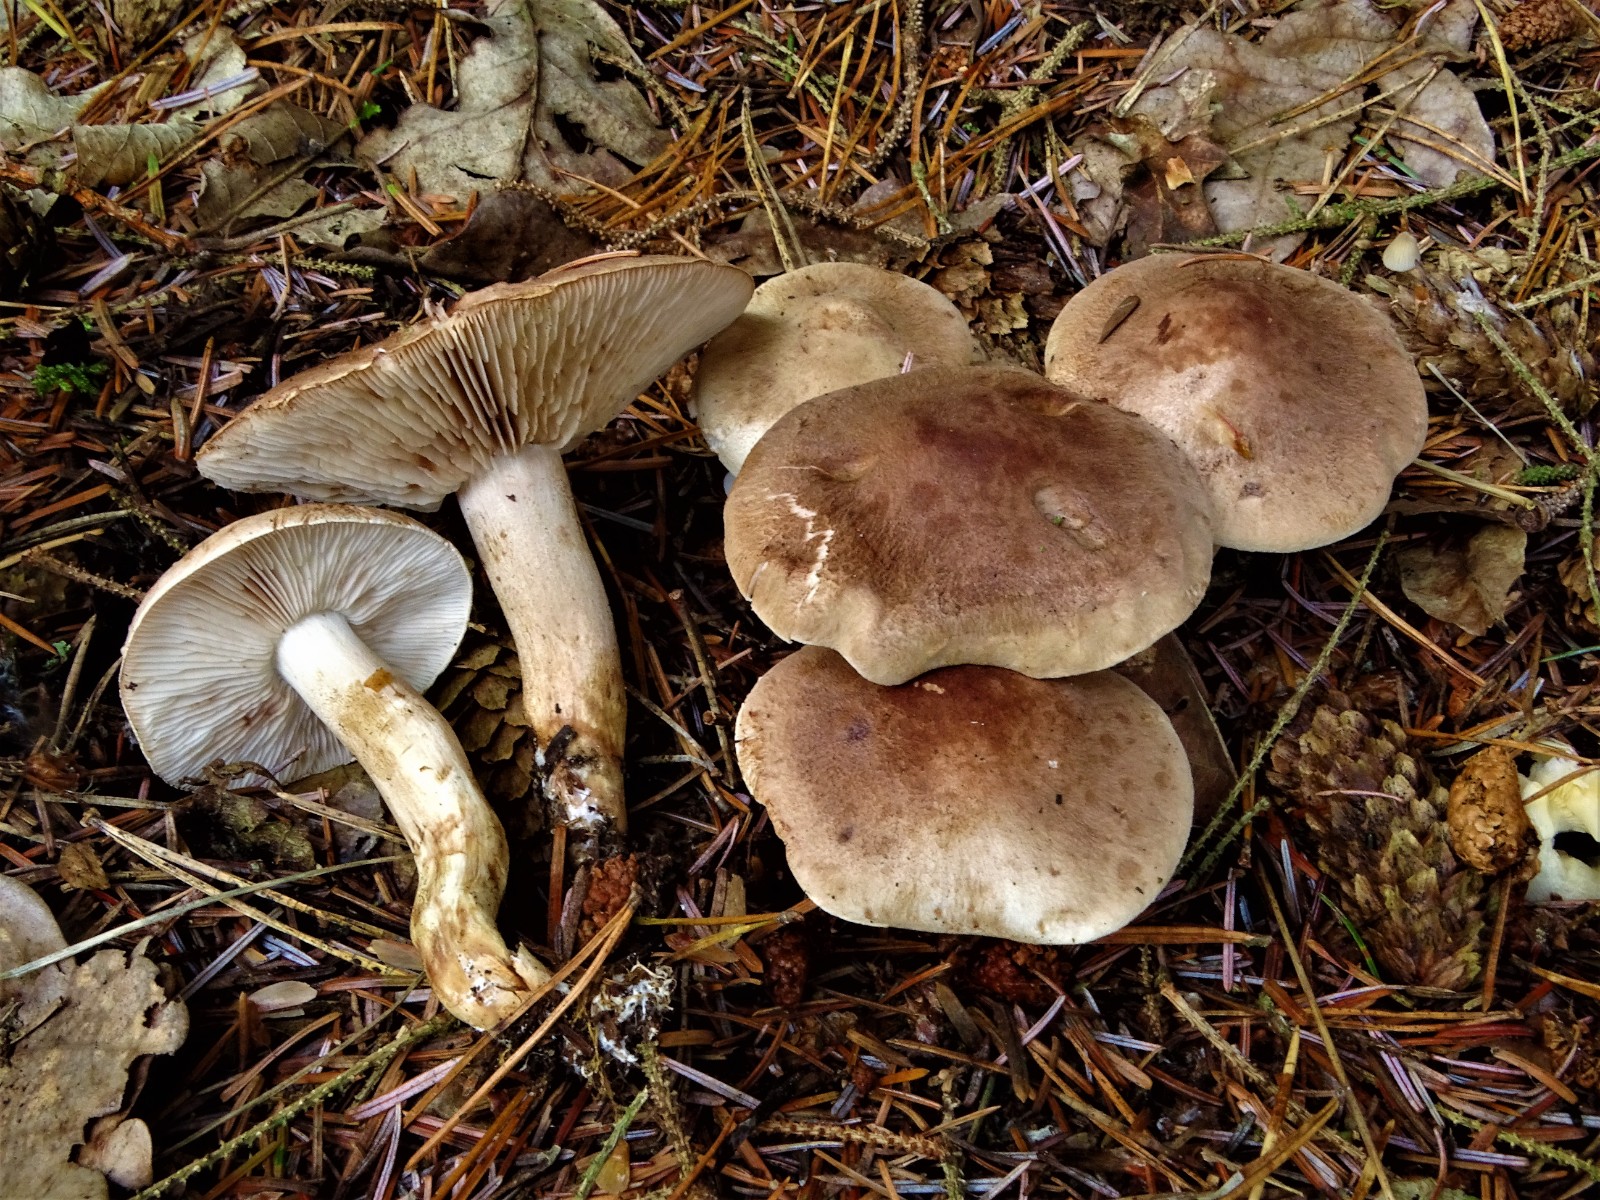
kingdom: Fungi
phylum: Basidiomycota
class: Agaricomycetes
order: Agaricales
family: Tricholomataceae
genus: Tricholoma
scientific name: Tricholoma imbricatum
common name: skællet ridderhat
